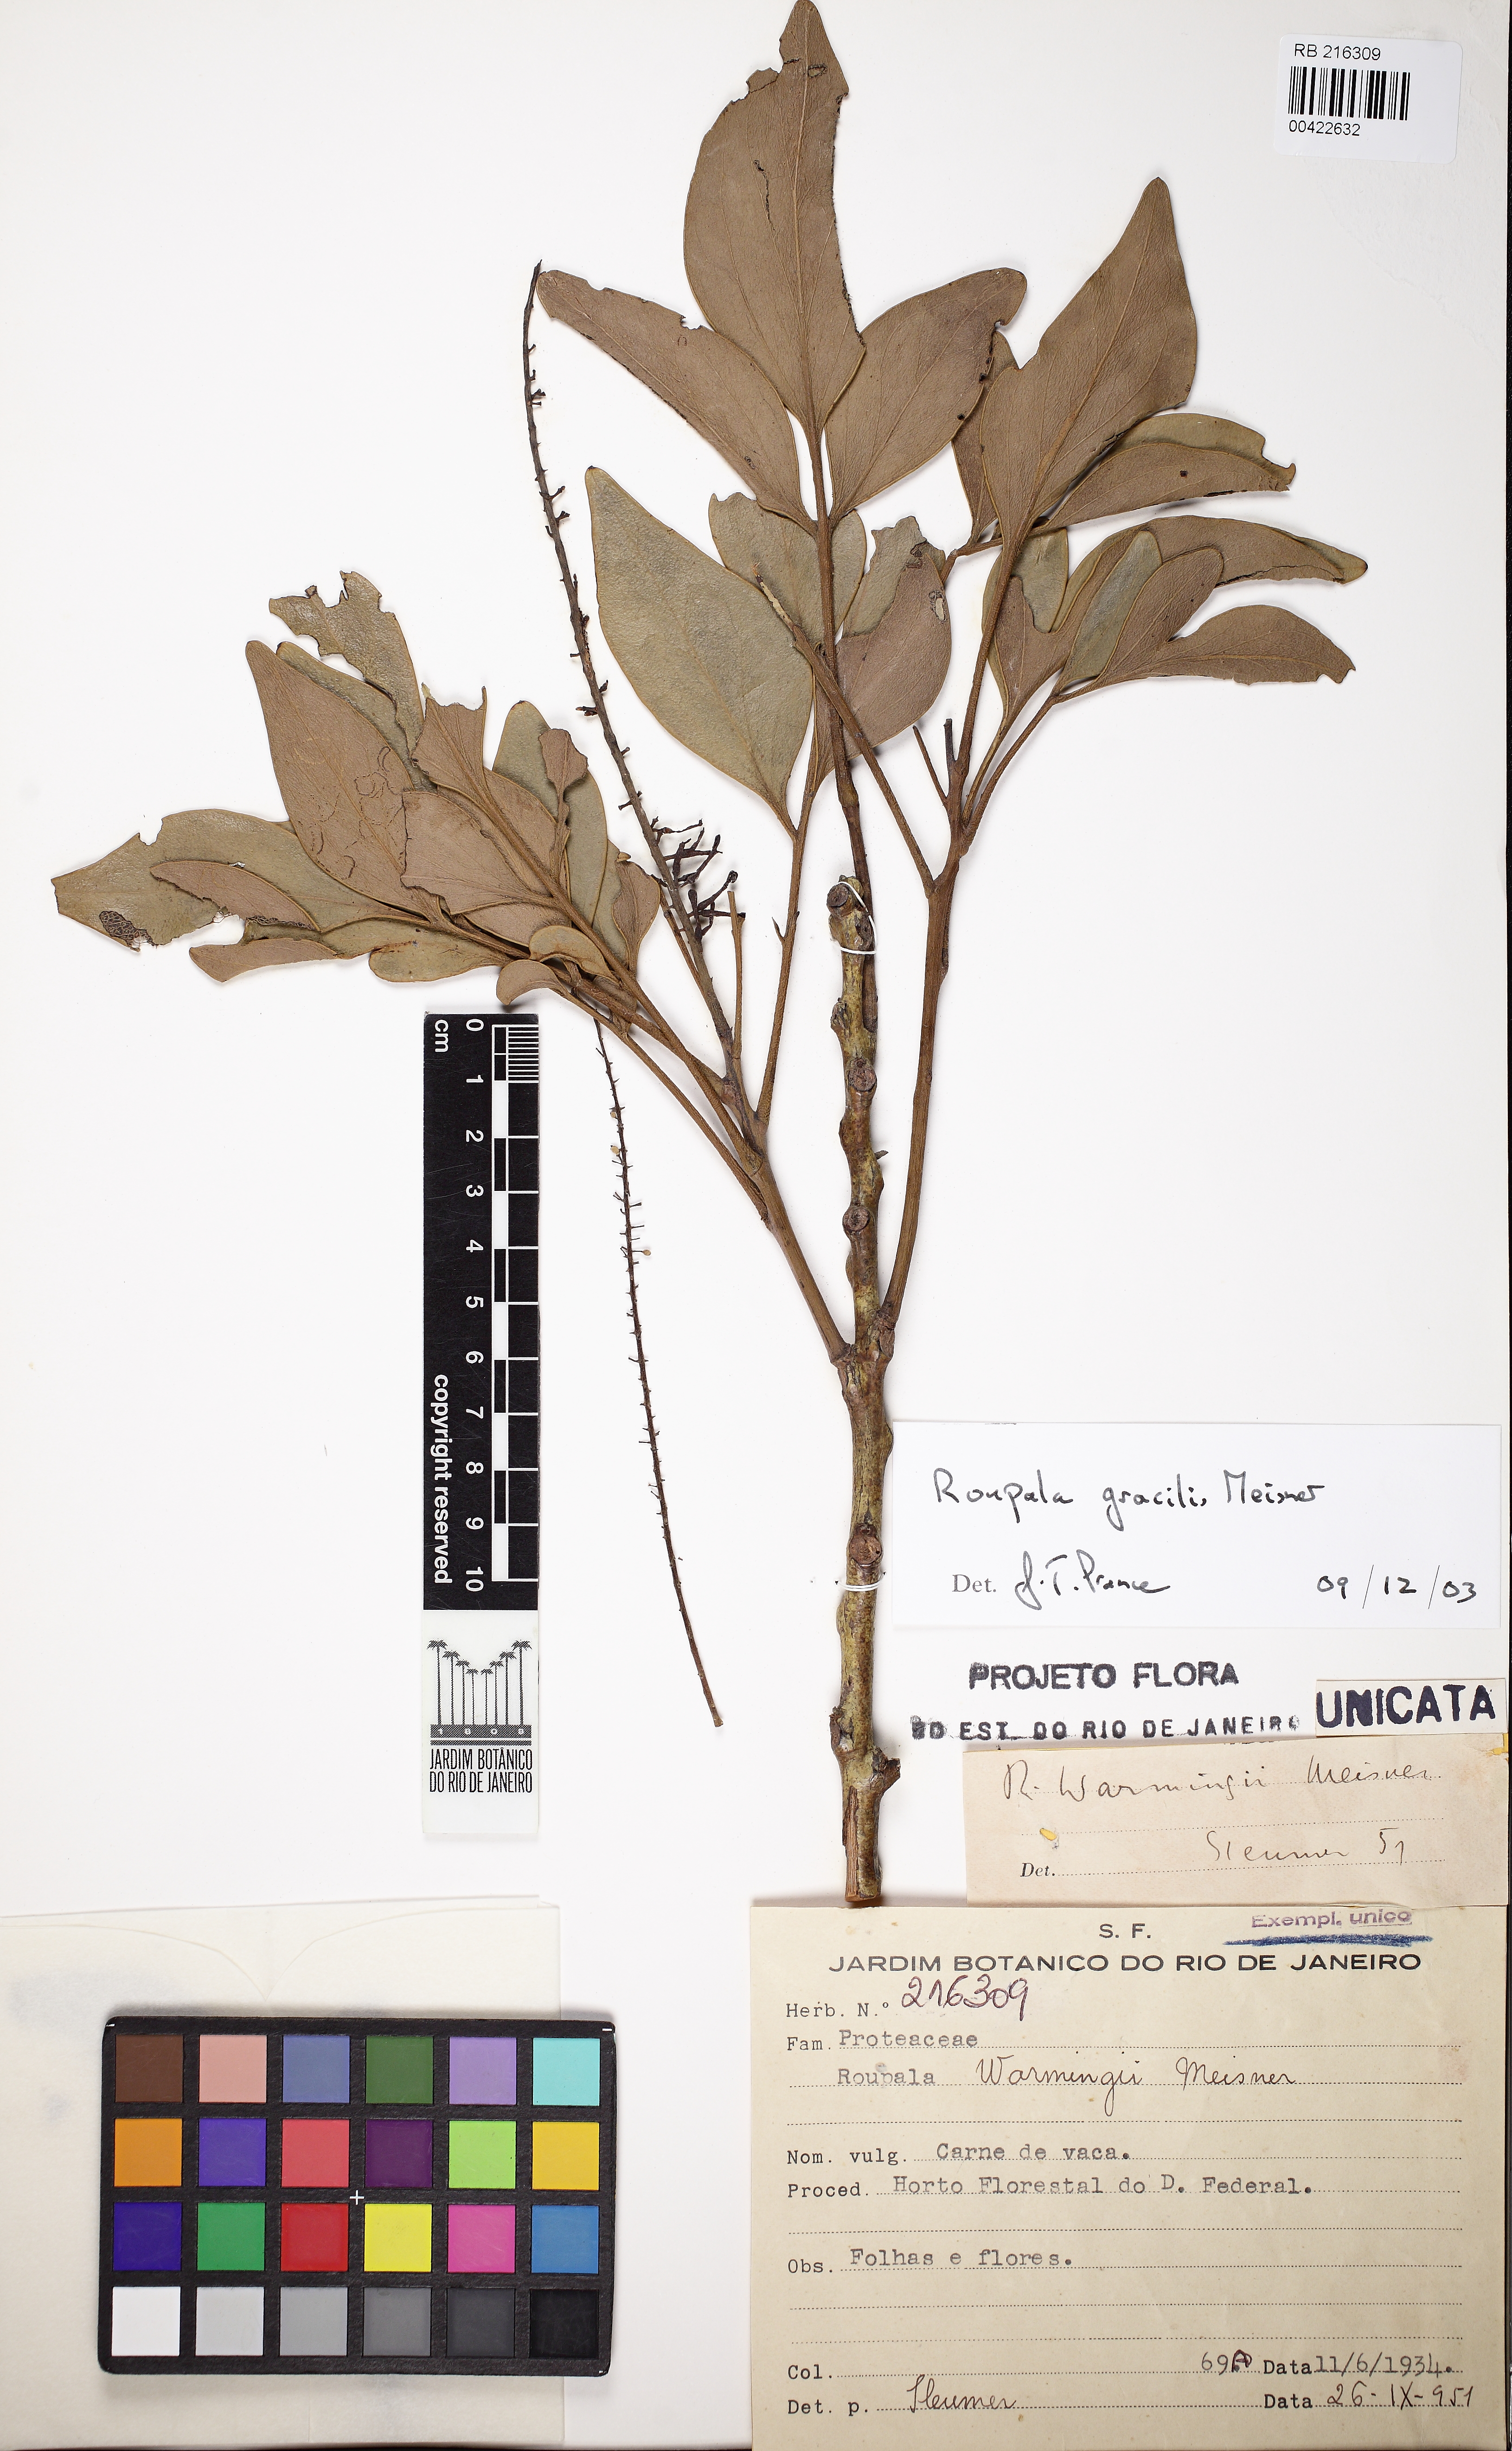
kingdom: Plantae
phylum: Tracheophyta
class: Magnoliopsida
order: Proteales
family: Proteaceae
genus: Roupala
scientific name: Roupala gracilis
